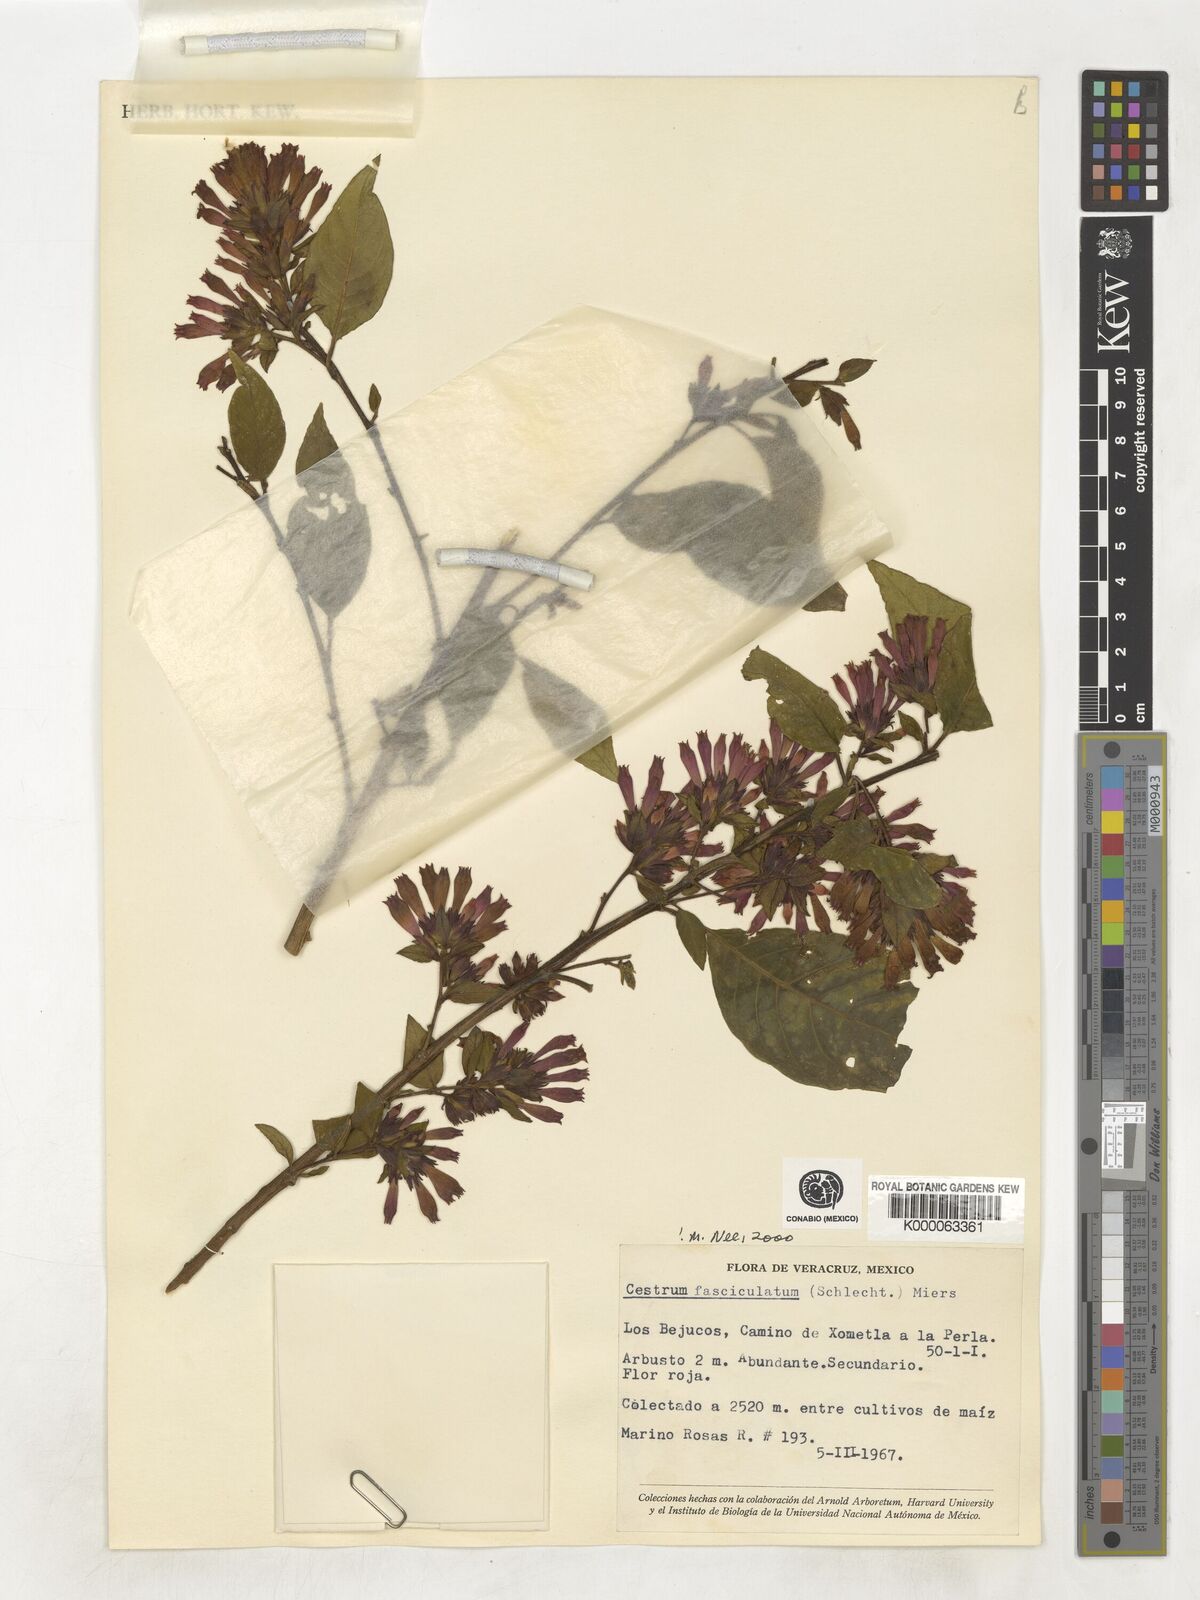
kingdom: Plantae
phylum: Tracheophyta
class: Magnoliopsida
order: Solanales
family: Solanaceae
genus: Cestrum
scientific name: Cestrum fasciculatum
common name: Early jessamine
